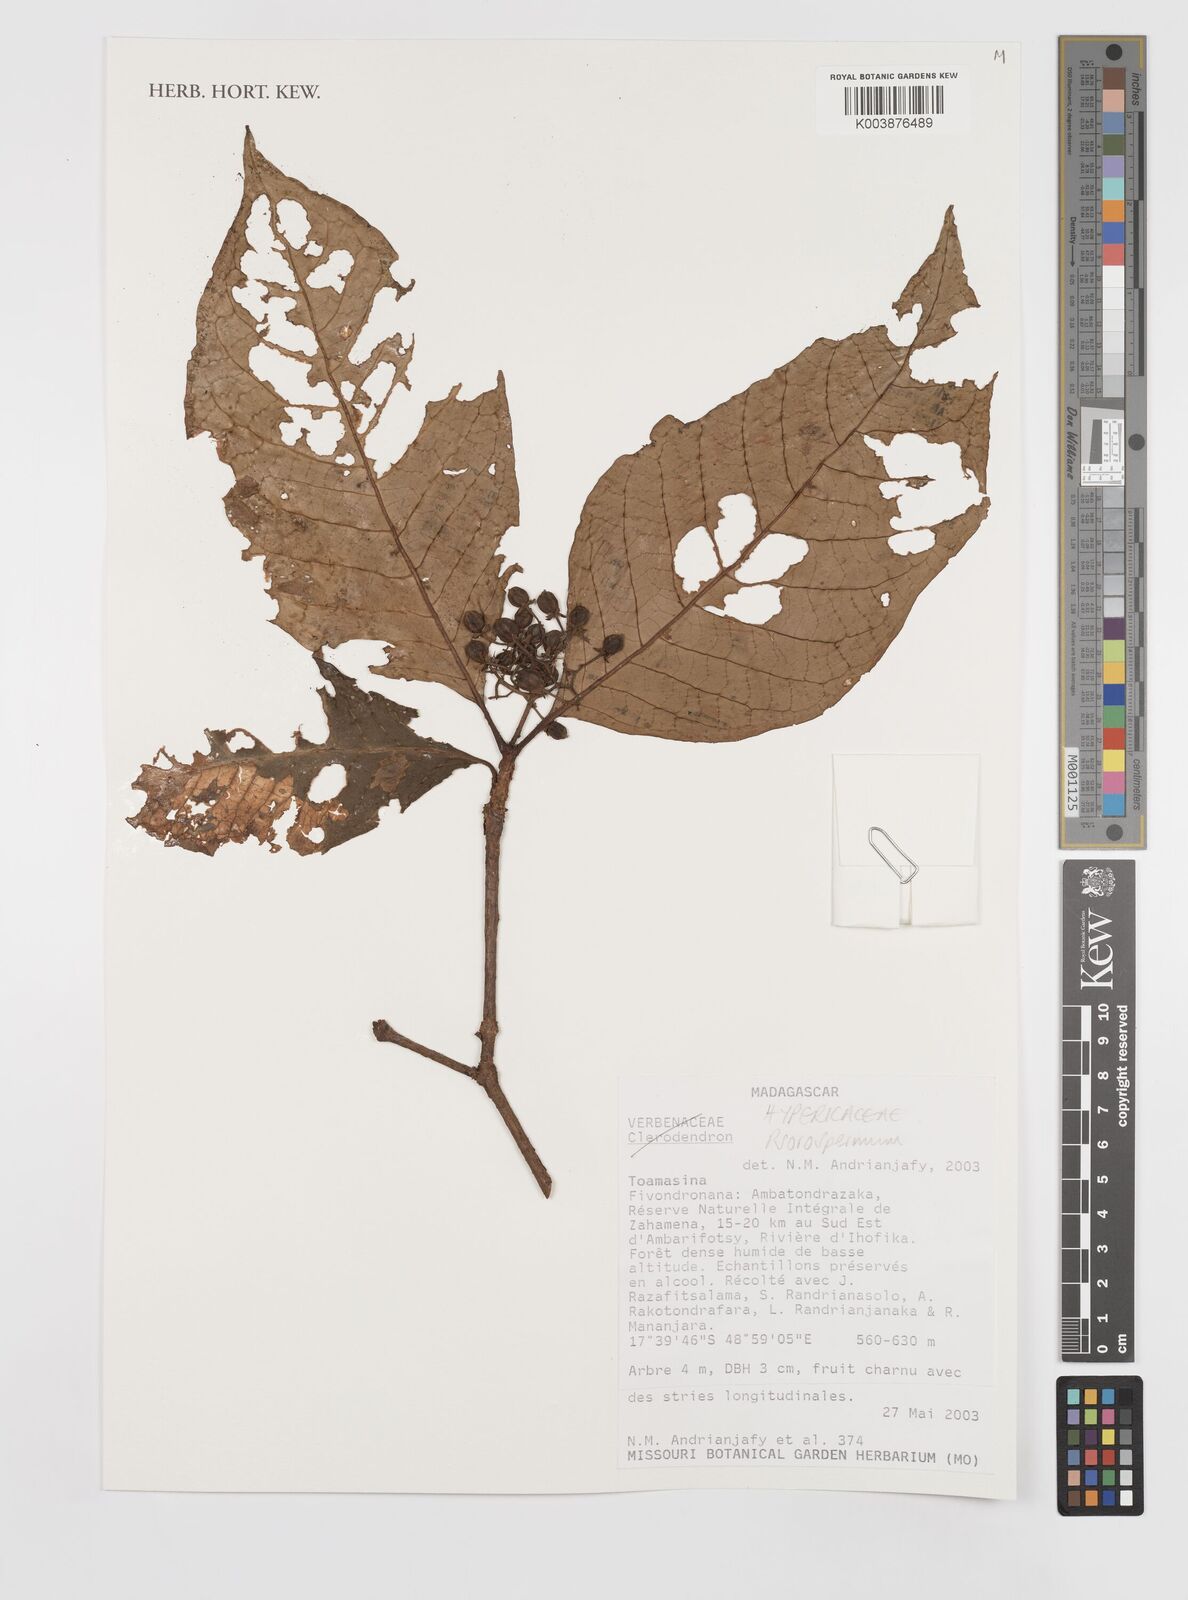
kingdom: Plantae
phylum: Tracheophyta
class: Magnoliopsida
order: Malpighiales
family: Hypericaceae
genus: Psorospermum
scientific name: Psorospermum
